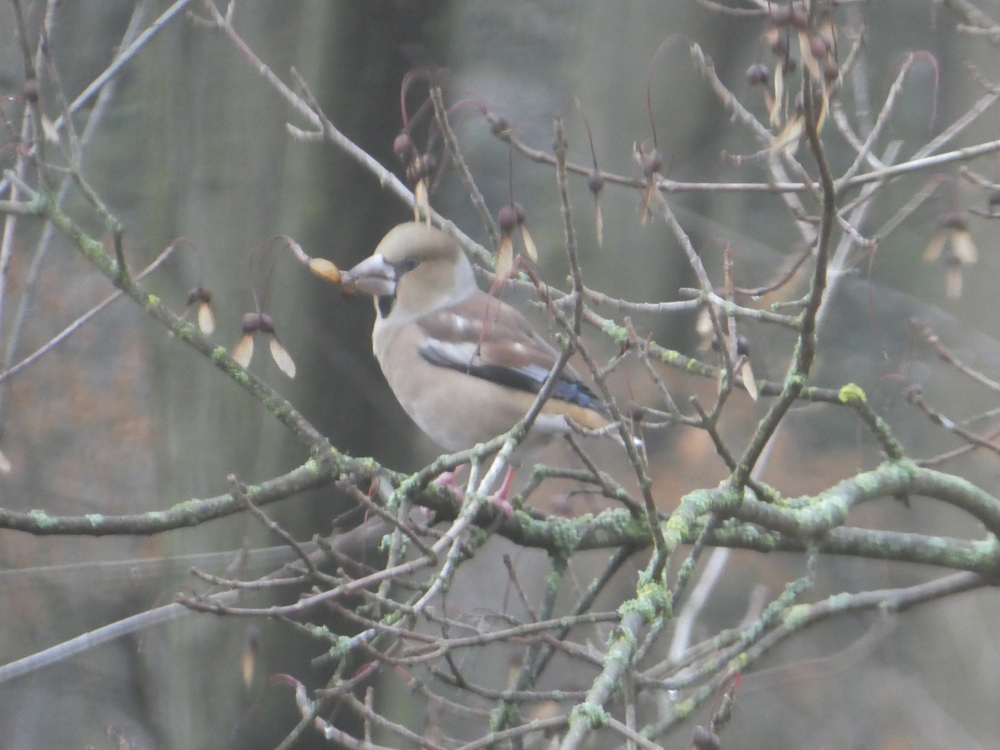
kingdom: Animalia
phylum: Chordata
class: Aves
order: Passeriformes
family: Fringillidae
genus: Coccothraustes
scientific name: Coccothraustes coccothraustes
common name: Hawfinch
